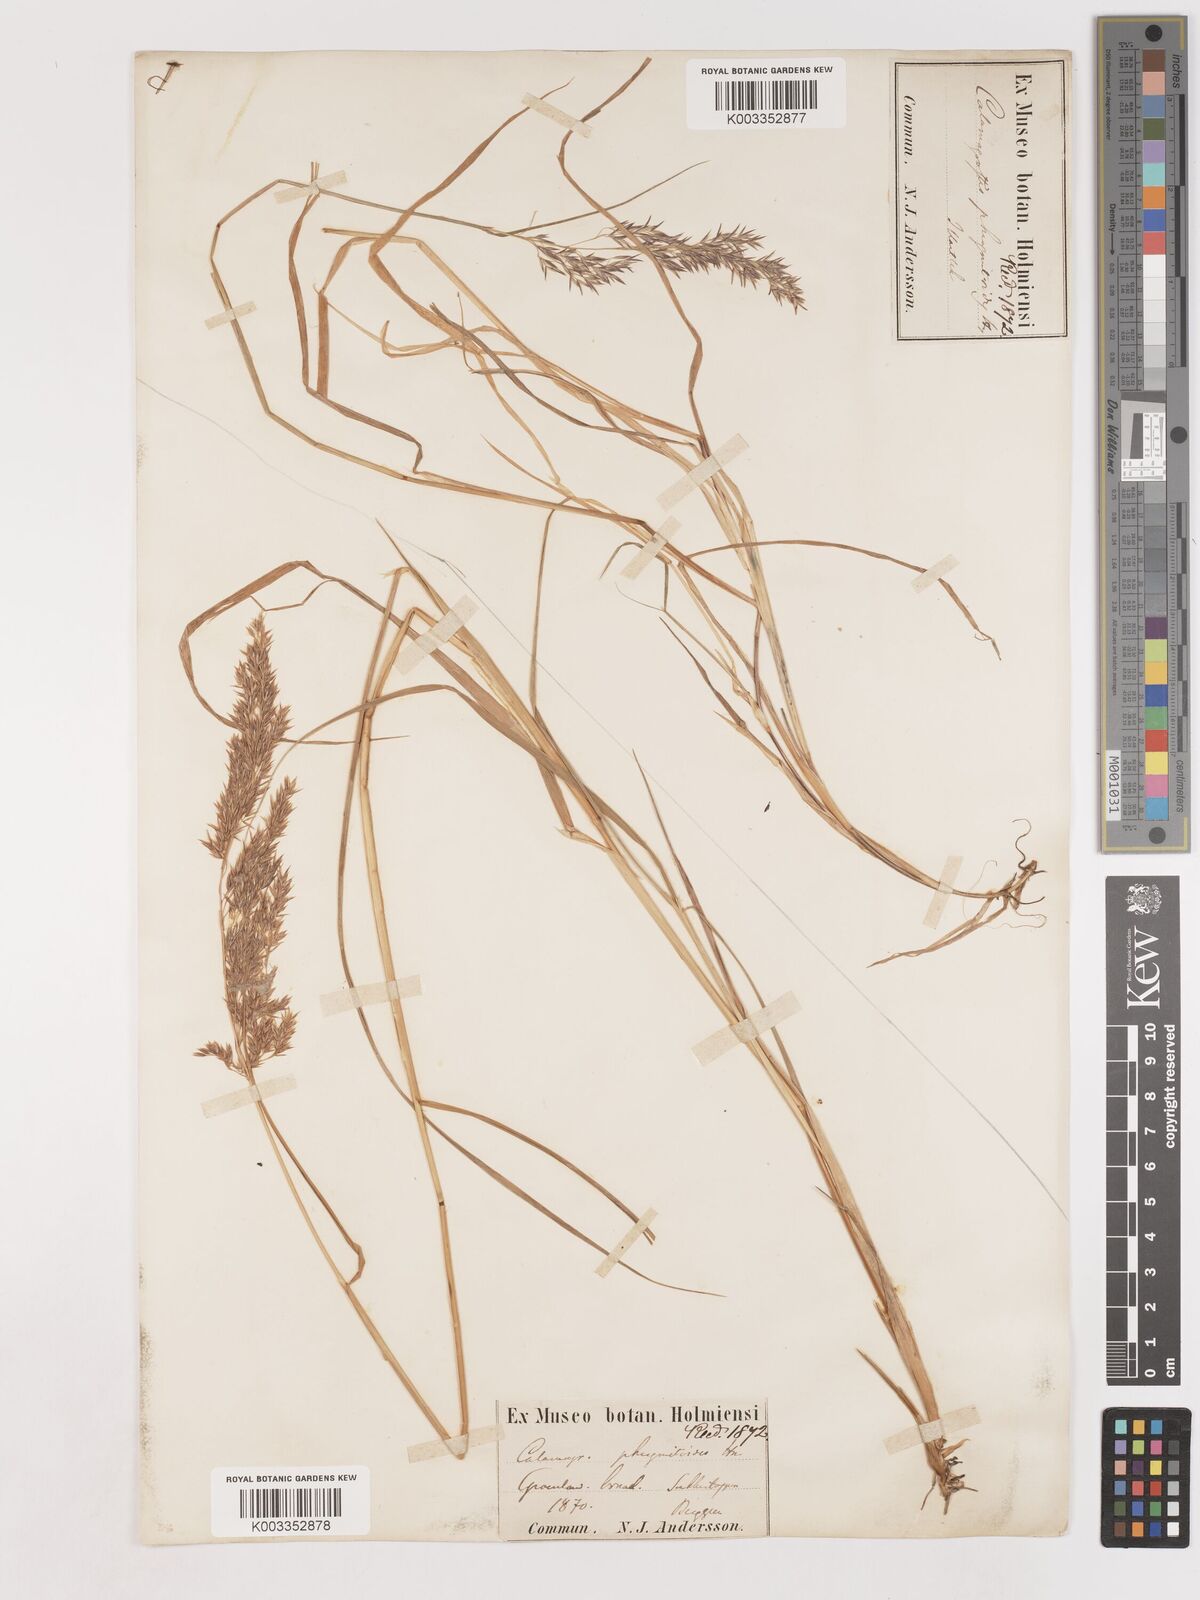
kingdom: Plantae
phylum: Tracheophyta
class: Liliopsida
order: Poales
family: Poaceae
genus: Calamagrostis
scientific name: Calamagrostis purpurea
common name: Scandinavian small-reed
